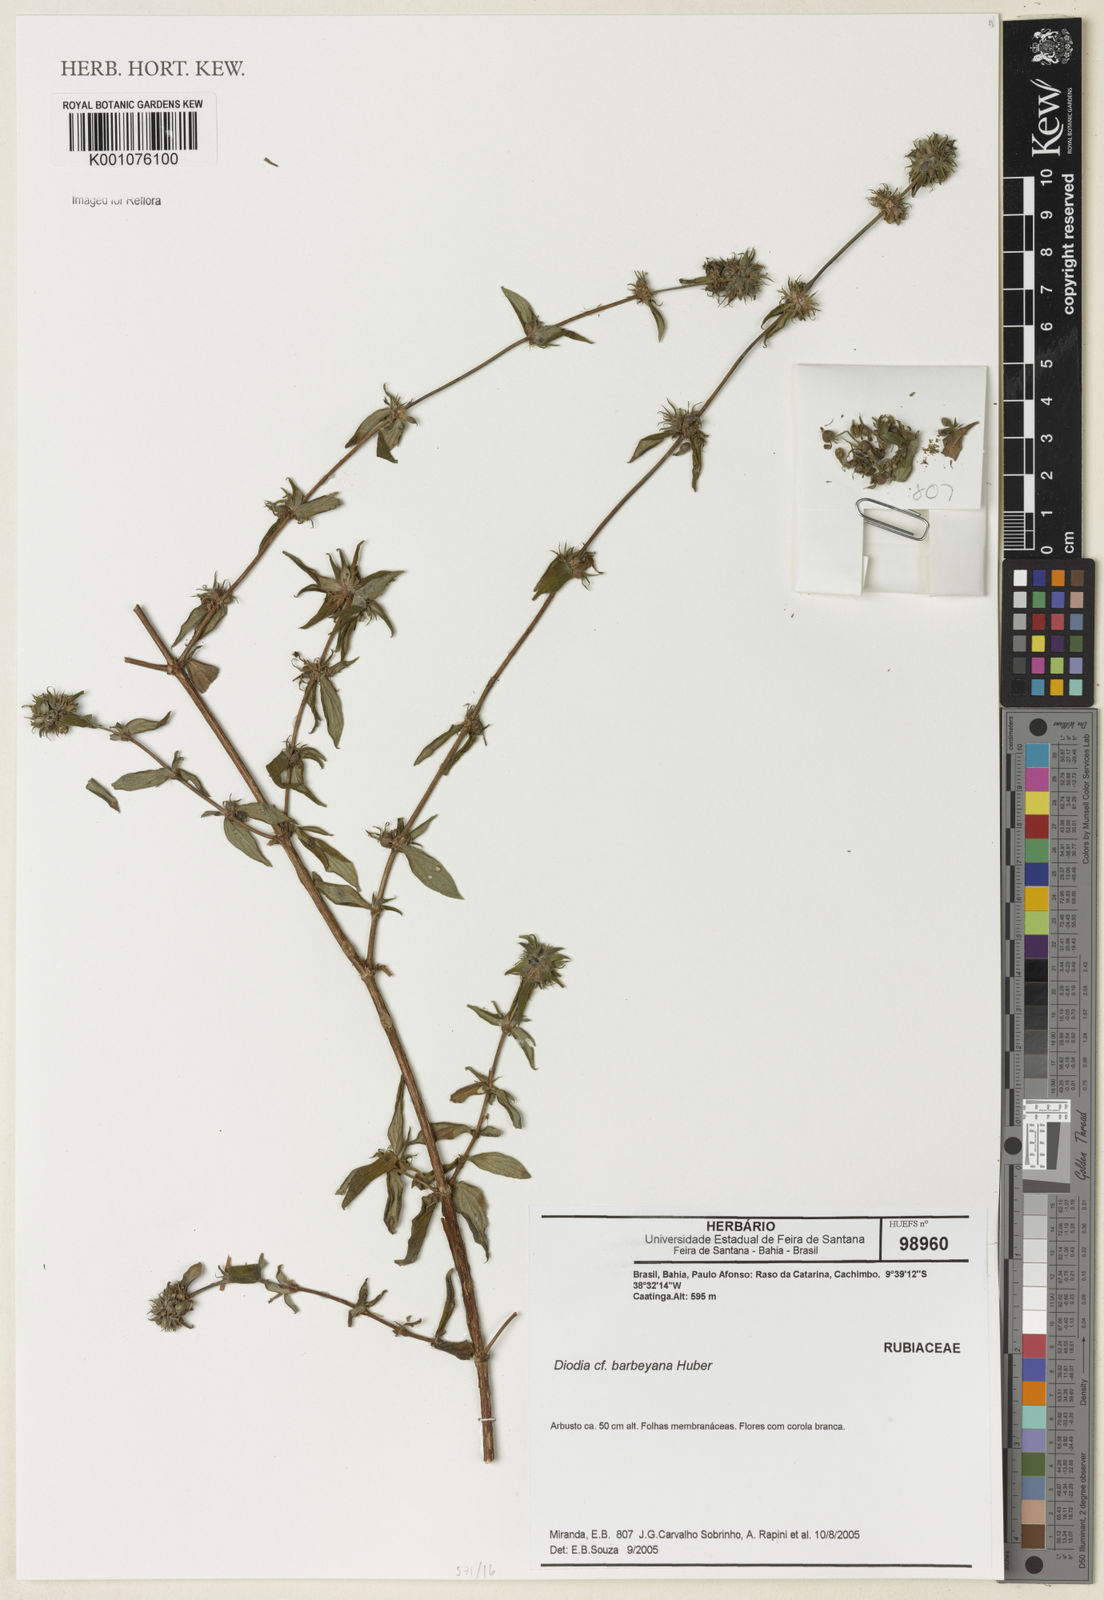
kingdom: Plantae
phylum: Tracheophyta
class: Magnoliopsida
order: Gentianales
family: Rubiaceae
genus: Hexasepalum
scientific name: Hexasepalum gardneri
